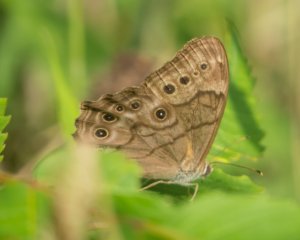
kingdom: Animalia
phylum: Arthropoda
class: Insecta
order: Lepidoptera
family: Nymphalidae
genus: Lethe
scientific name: Lethe anthedon
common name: Northern Pearly-Eye
